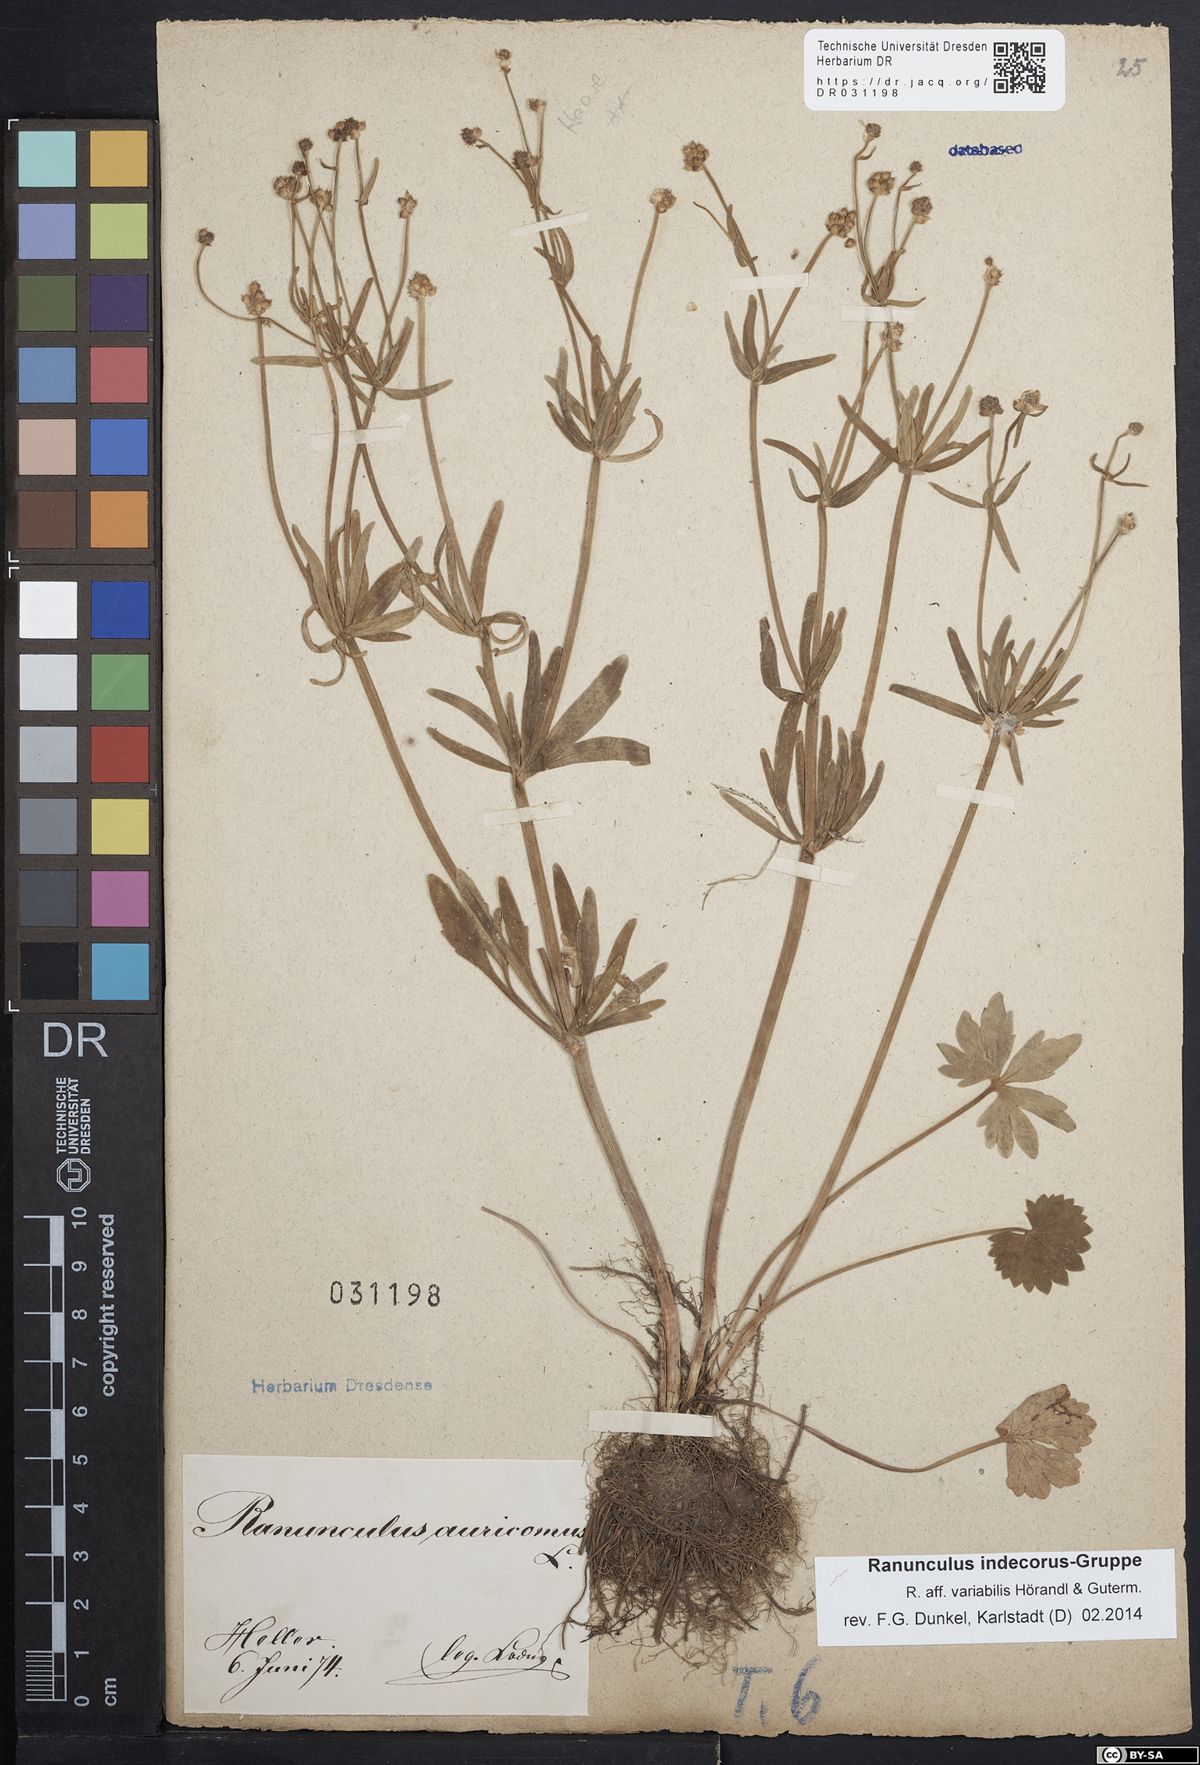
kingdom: Plantae
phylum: Tracheophyta
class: Magnoliopsida
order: Ranunculales
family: Ranunculaceae
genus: Ranunculus
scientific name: Ranunculus indecorus
